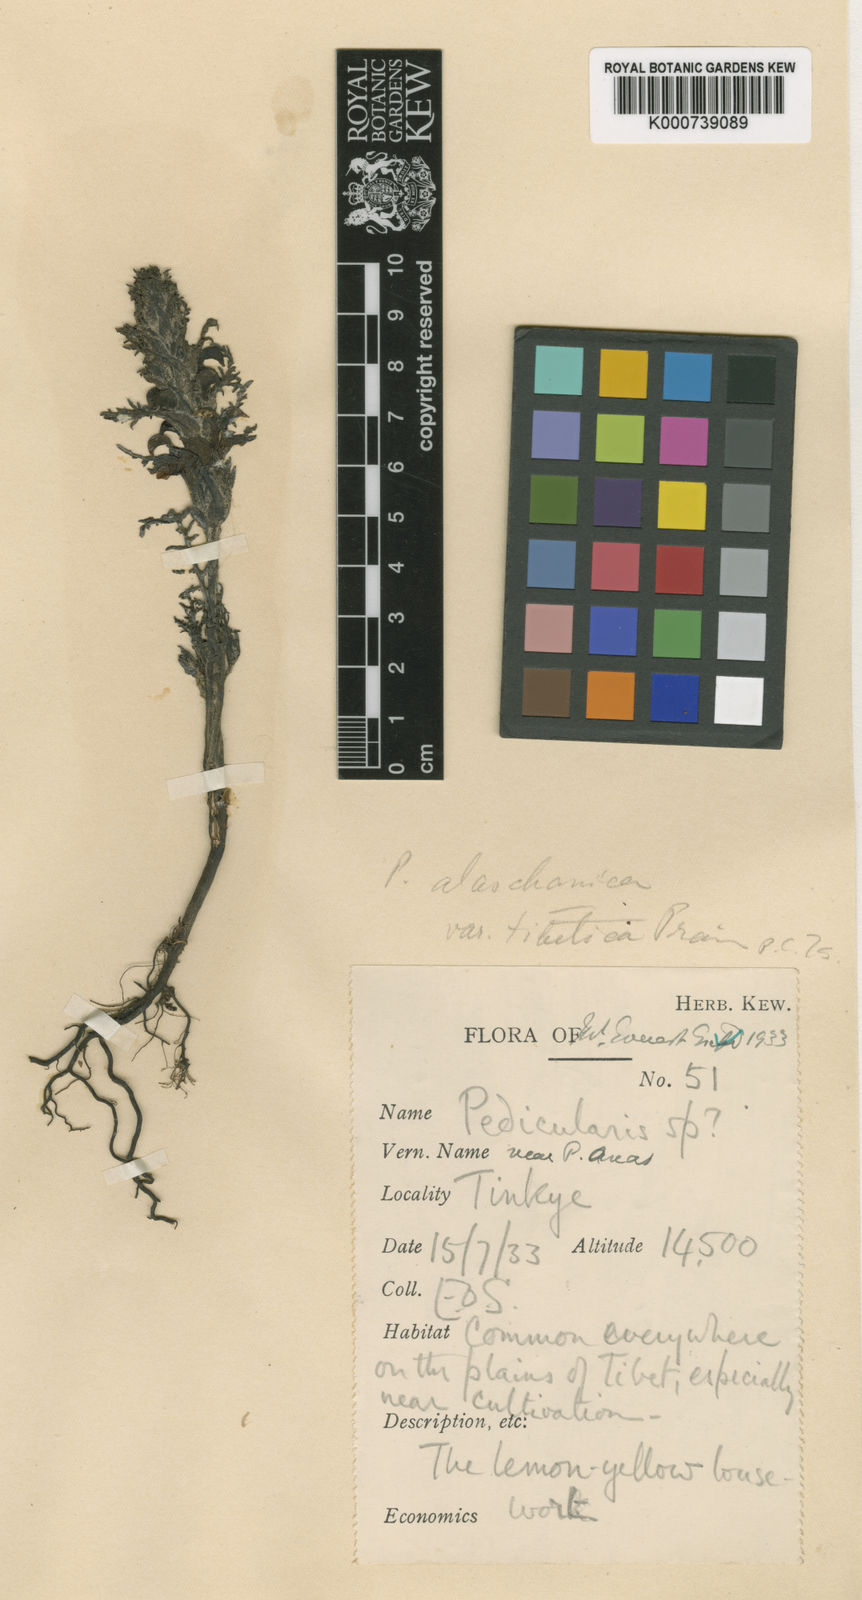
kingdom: Plantae
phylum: Tracheophyta
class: Magnoliopsida
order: Lamiales
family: Orobanchaceae
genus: Pedicularis
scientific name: Pedicularis
